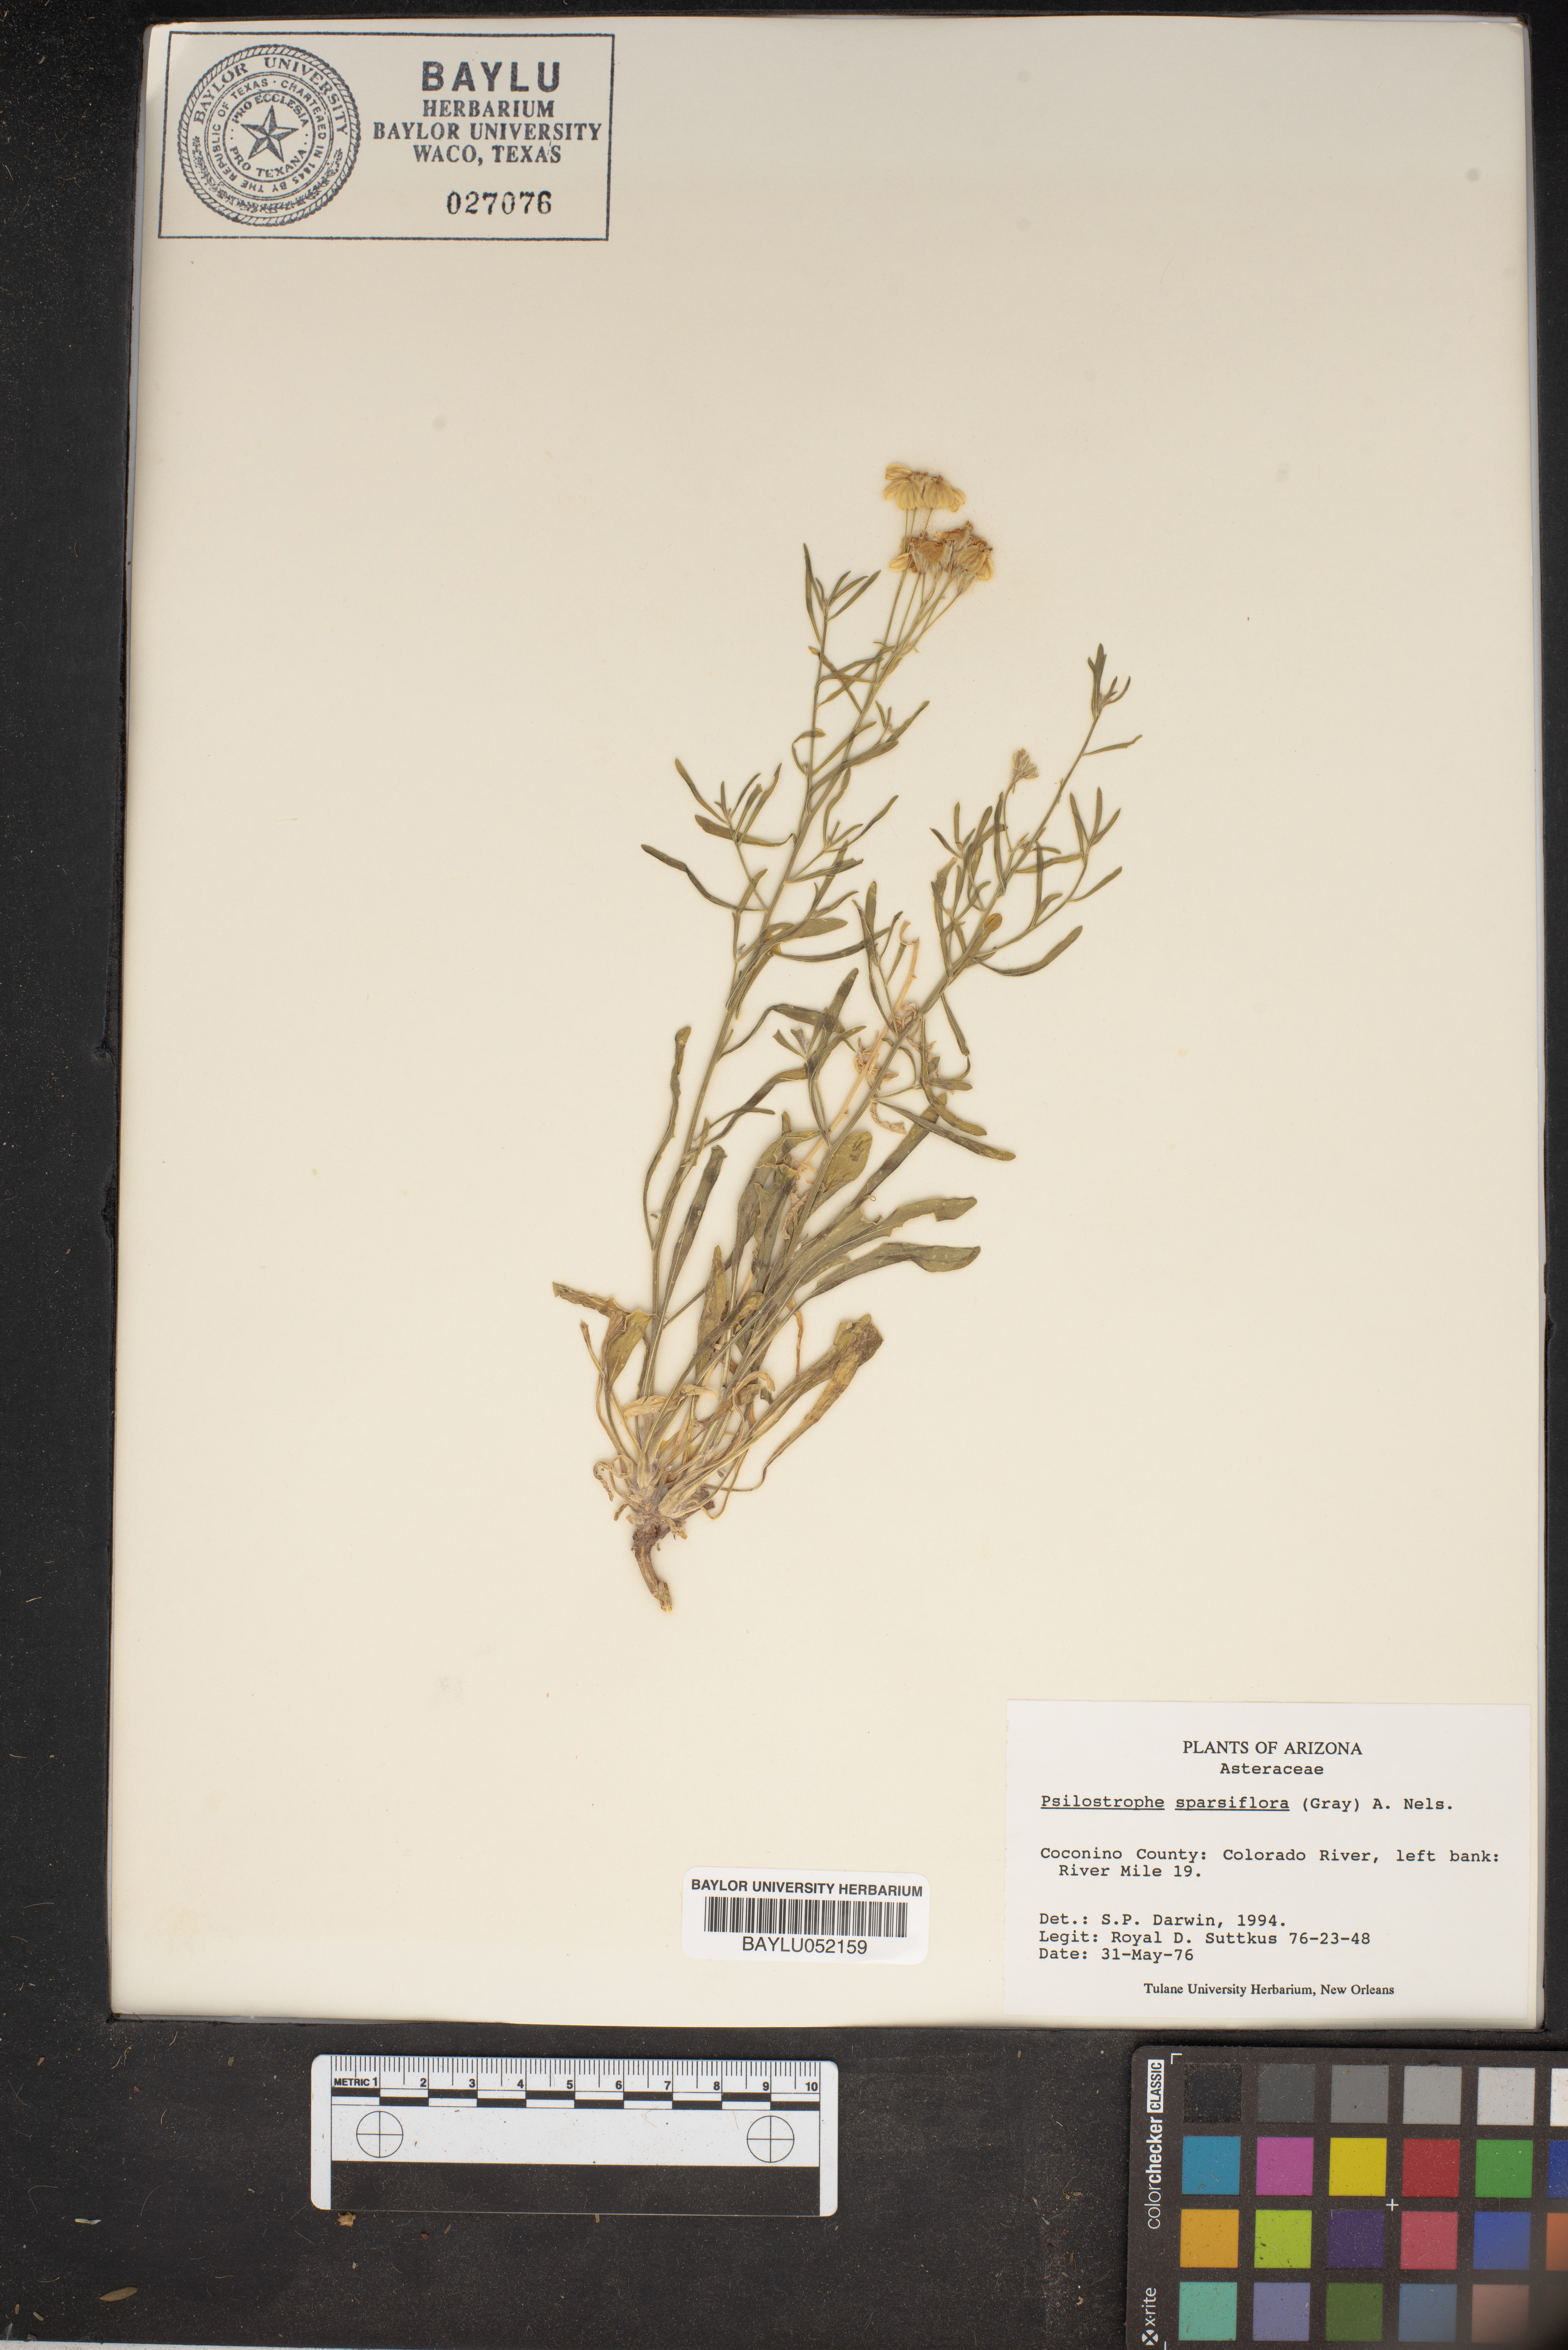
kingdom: Plantae
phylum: Tracheophyta
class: Magnoliopsida
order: Asterales
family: Asteraceae
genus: Psilostrophe
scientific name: Psilostrophe sparsiflora
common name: Green-stem paper-flower
